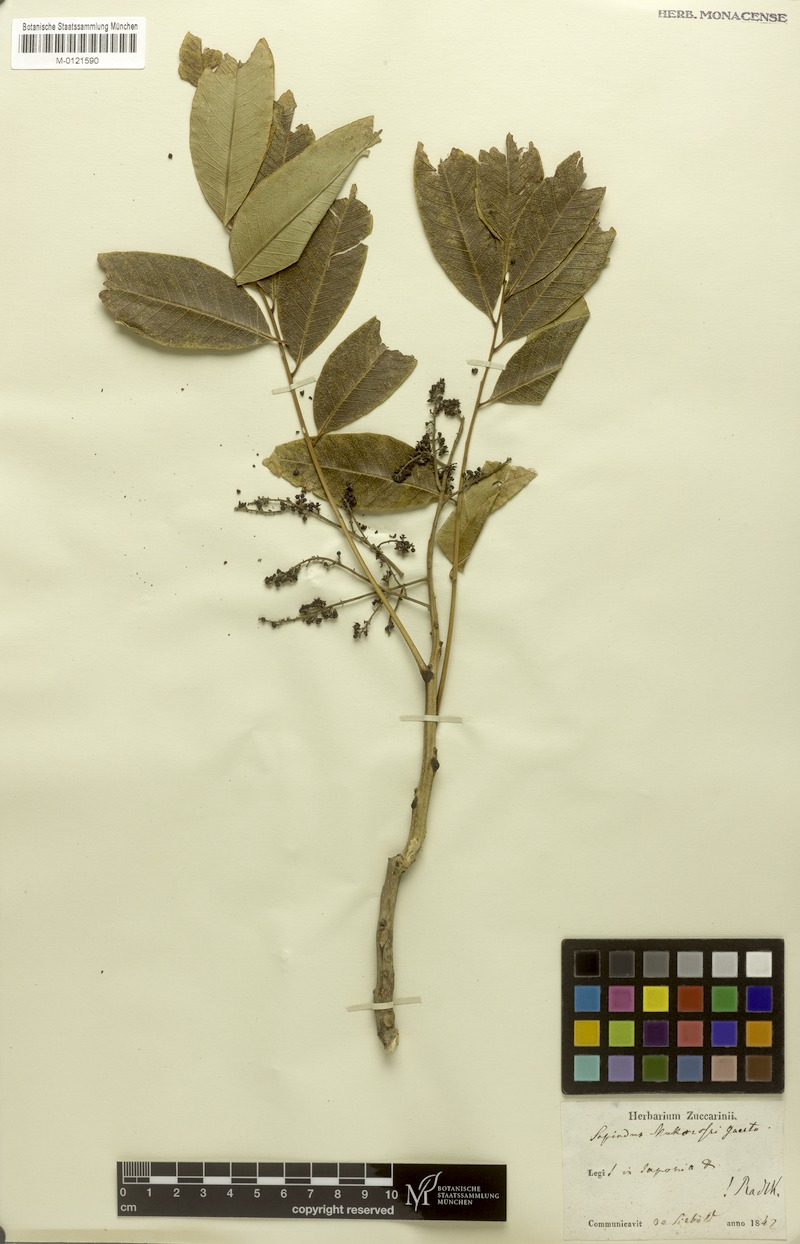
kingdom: Plantae
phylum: Tracheophyta
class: Magnoliopsida
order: Sapindales
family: Sapindaceae
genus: Sapindus
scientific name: Sapindus mukorossi
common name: Chinese soapberry
